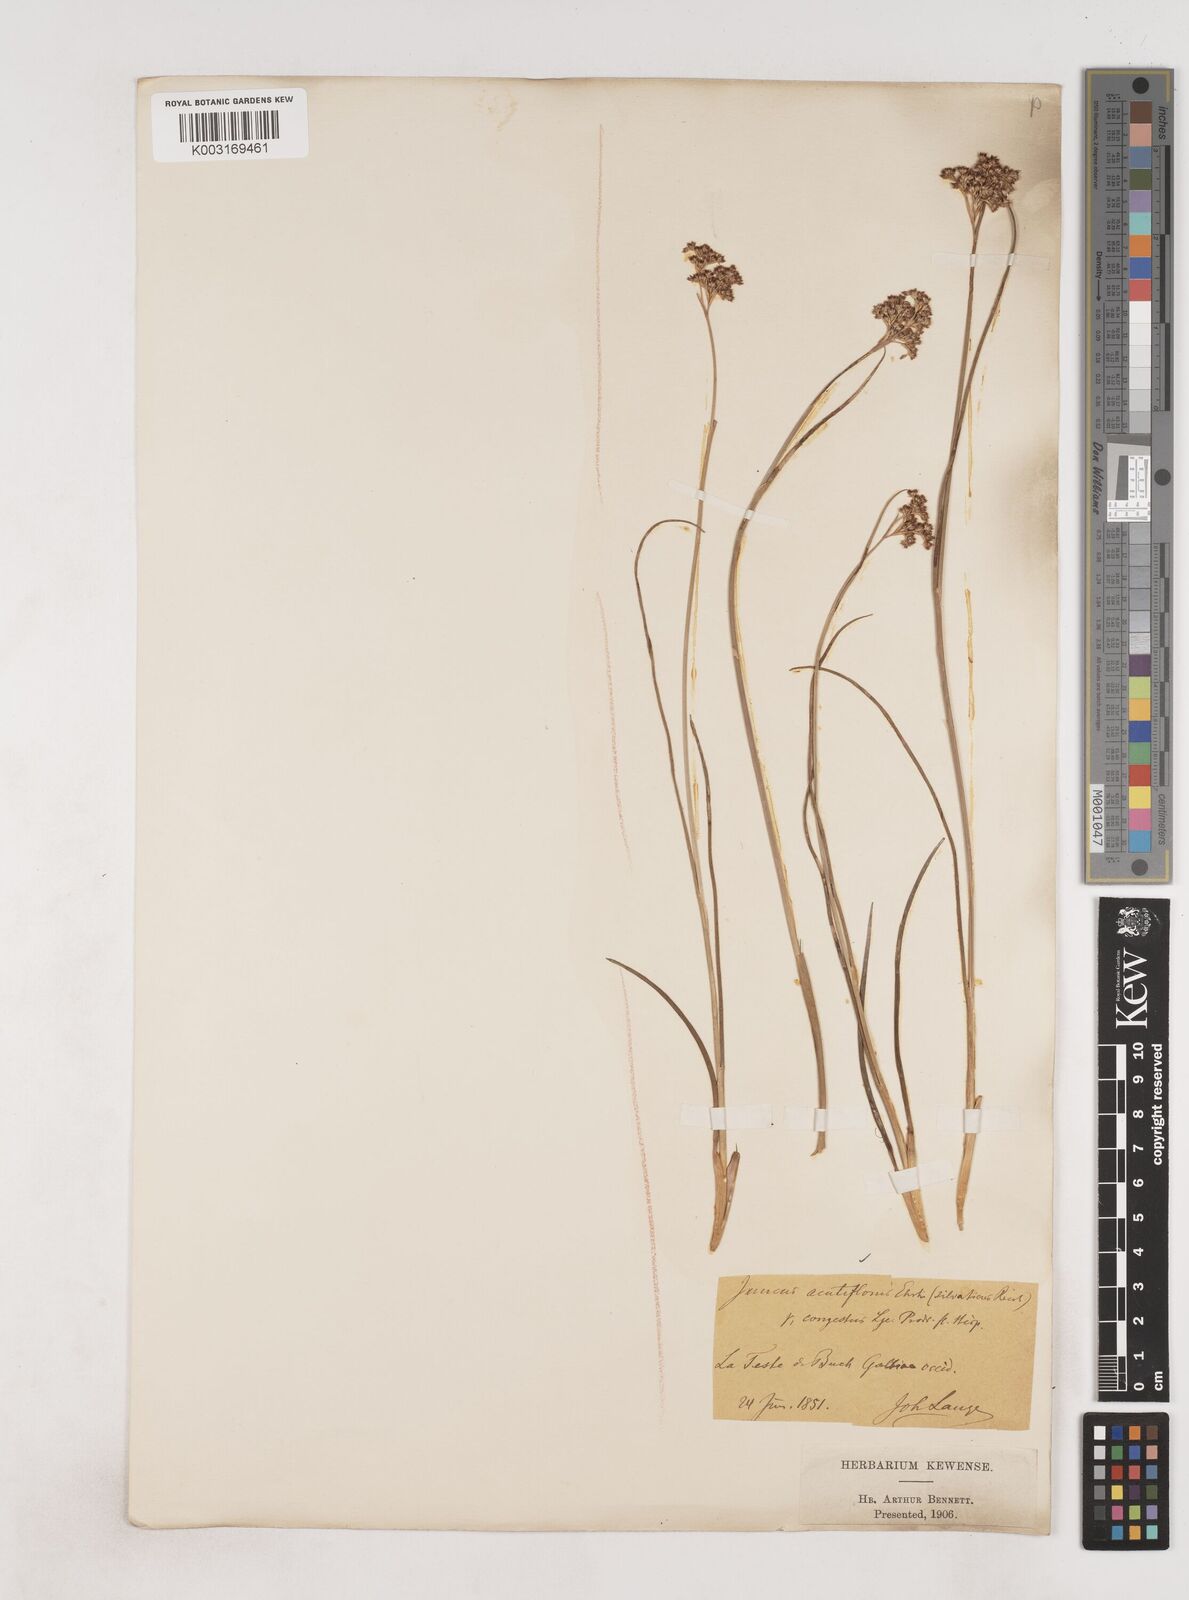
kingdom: Plantae
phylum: Tracheophyta
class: Liliopsida
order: Poales
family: Juncaceae
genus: Juncus
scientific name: Juncus acutiflorus
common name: Sharp-flowered rush
